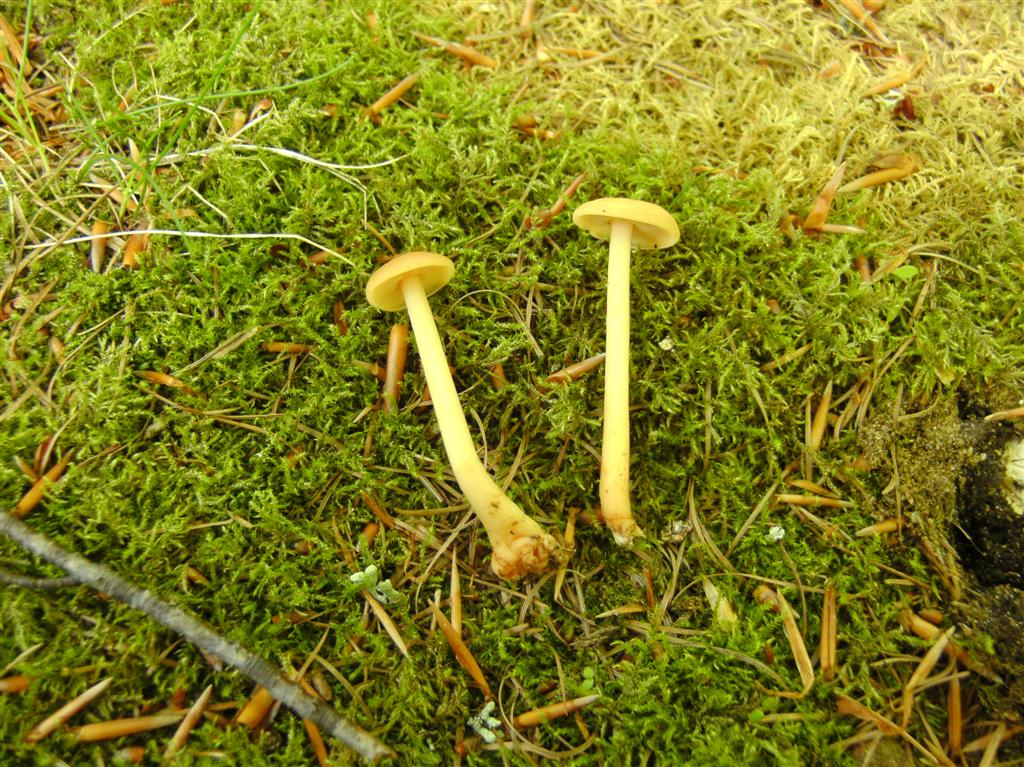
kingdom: Fungi
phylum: Basidiomycota
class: Agaricomycetes
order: Agaricales
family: Omphalotaceae
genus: Gymnopus
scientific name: Gymnopus aquosus
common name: bleg fladhat
